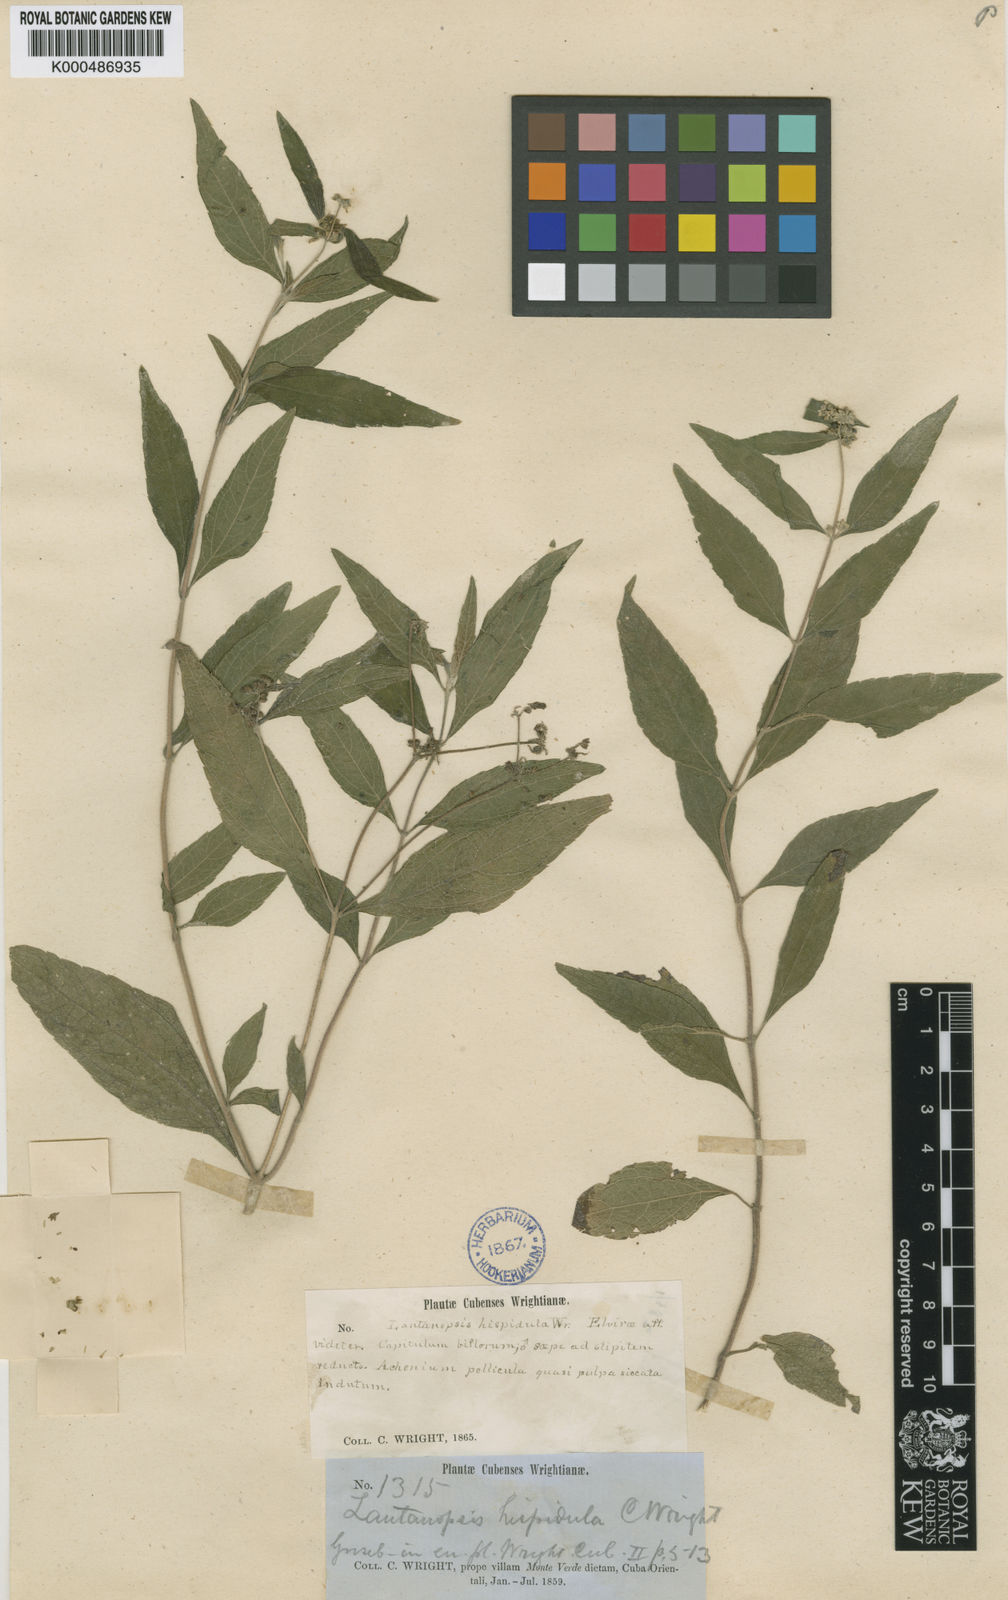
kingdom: Plantae
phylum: Tracheophyta
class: Magnoliopsida
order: Asterales
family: Asteraceae
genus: Lantanopsis
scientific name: Lantanopsis
